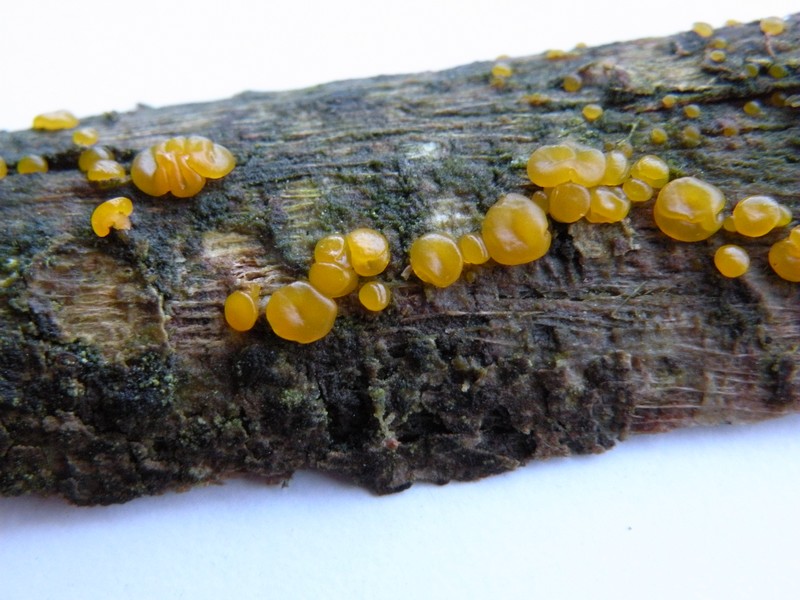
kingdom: Fungi
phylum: Basidiomycota
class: Dacrymycetes
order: Dacrymycetales
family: Dacrymycetaceae
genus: Dacrymyces
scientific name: Dacrymyces lacrymalis
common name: rynket tåresvamp
